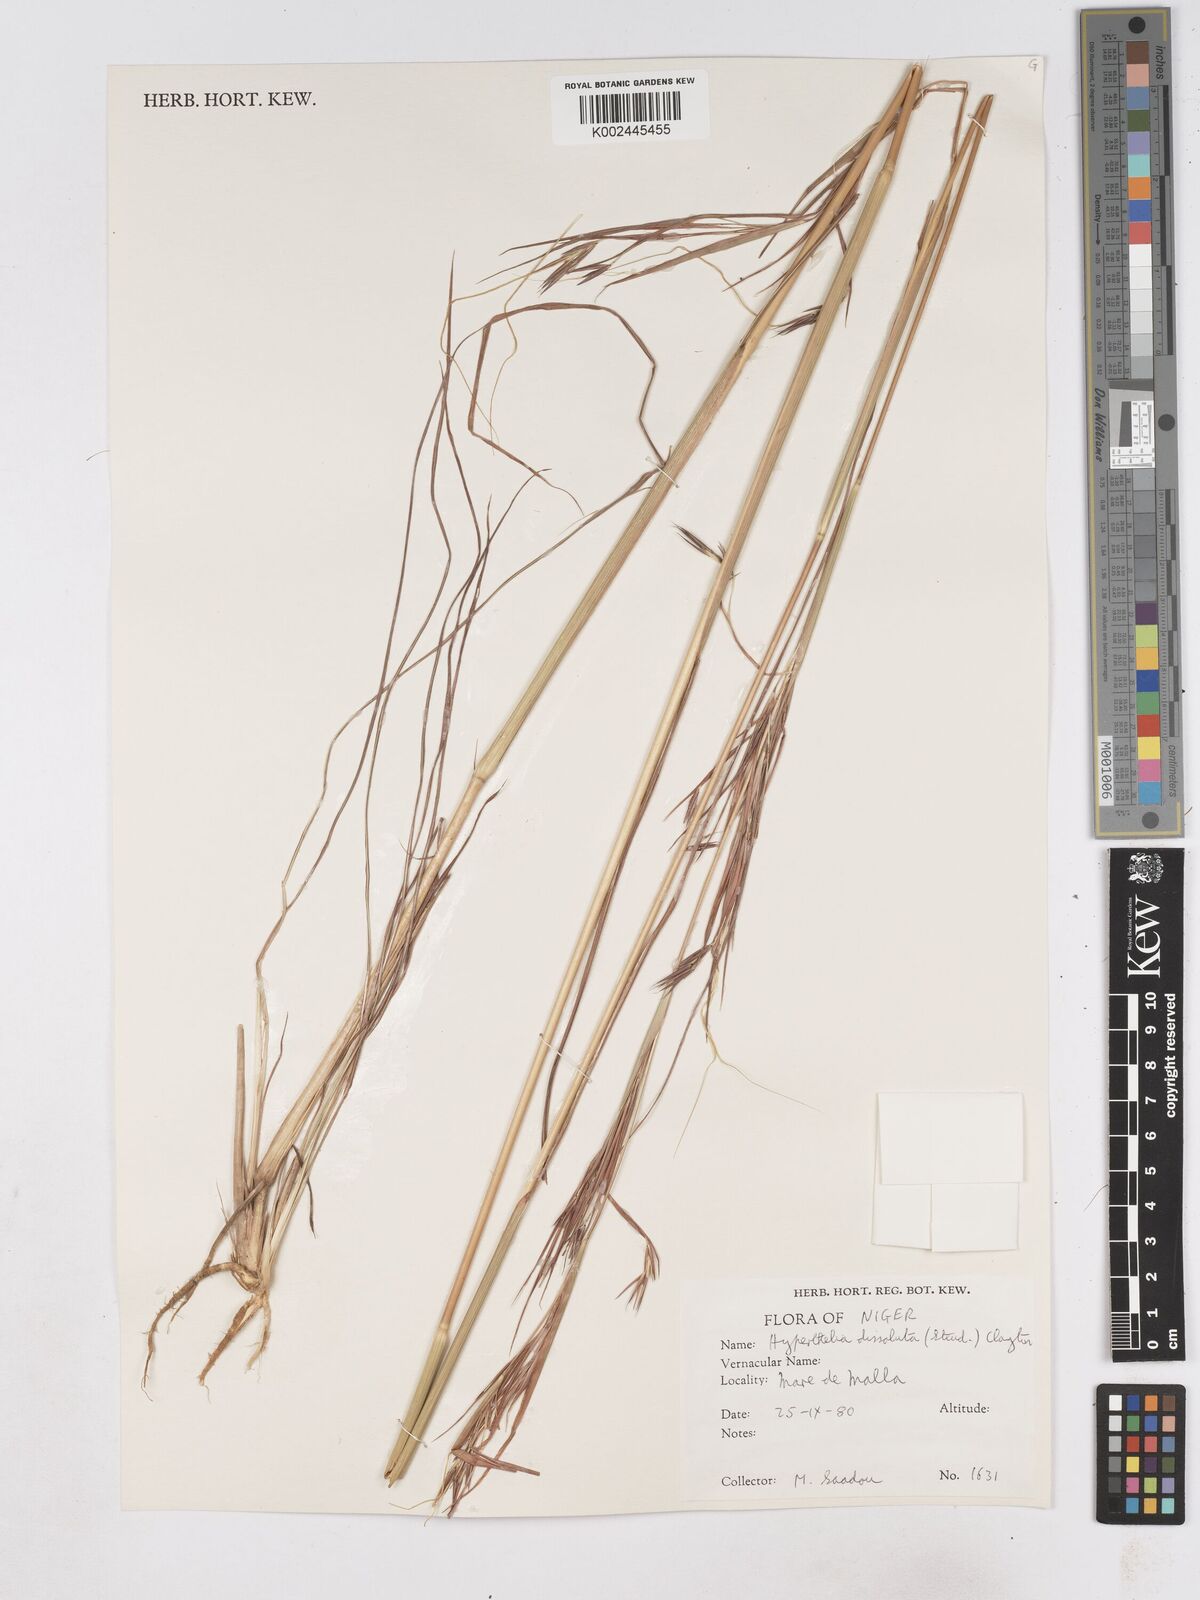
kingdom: Plantae
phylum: Tracheophyta
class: Liliopsida
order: Poales
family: Poaceae
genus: Hyperthelia
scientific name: Hyperthelia dissoluta
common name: Yellow thatching grass
